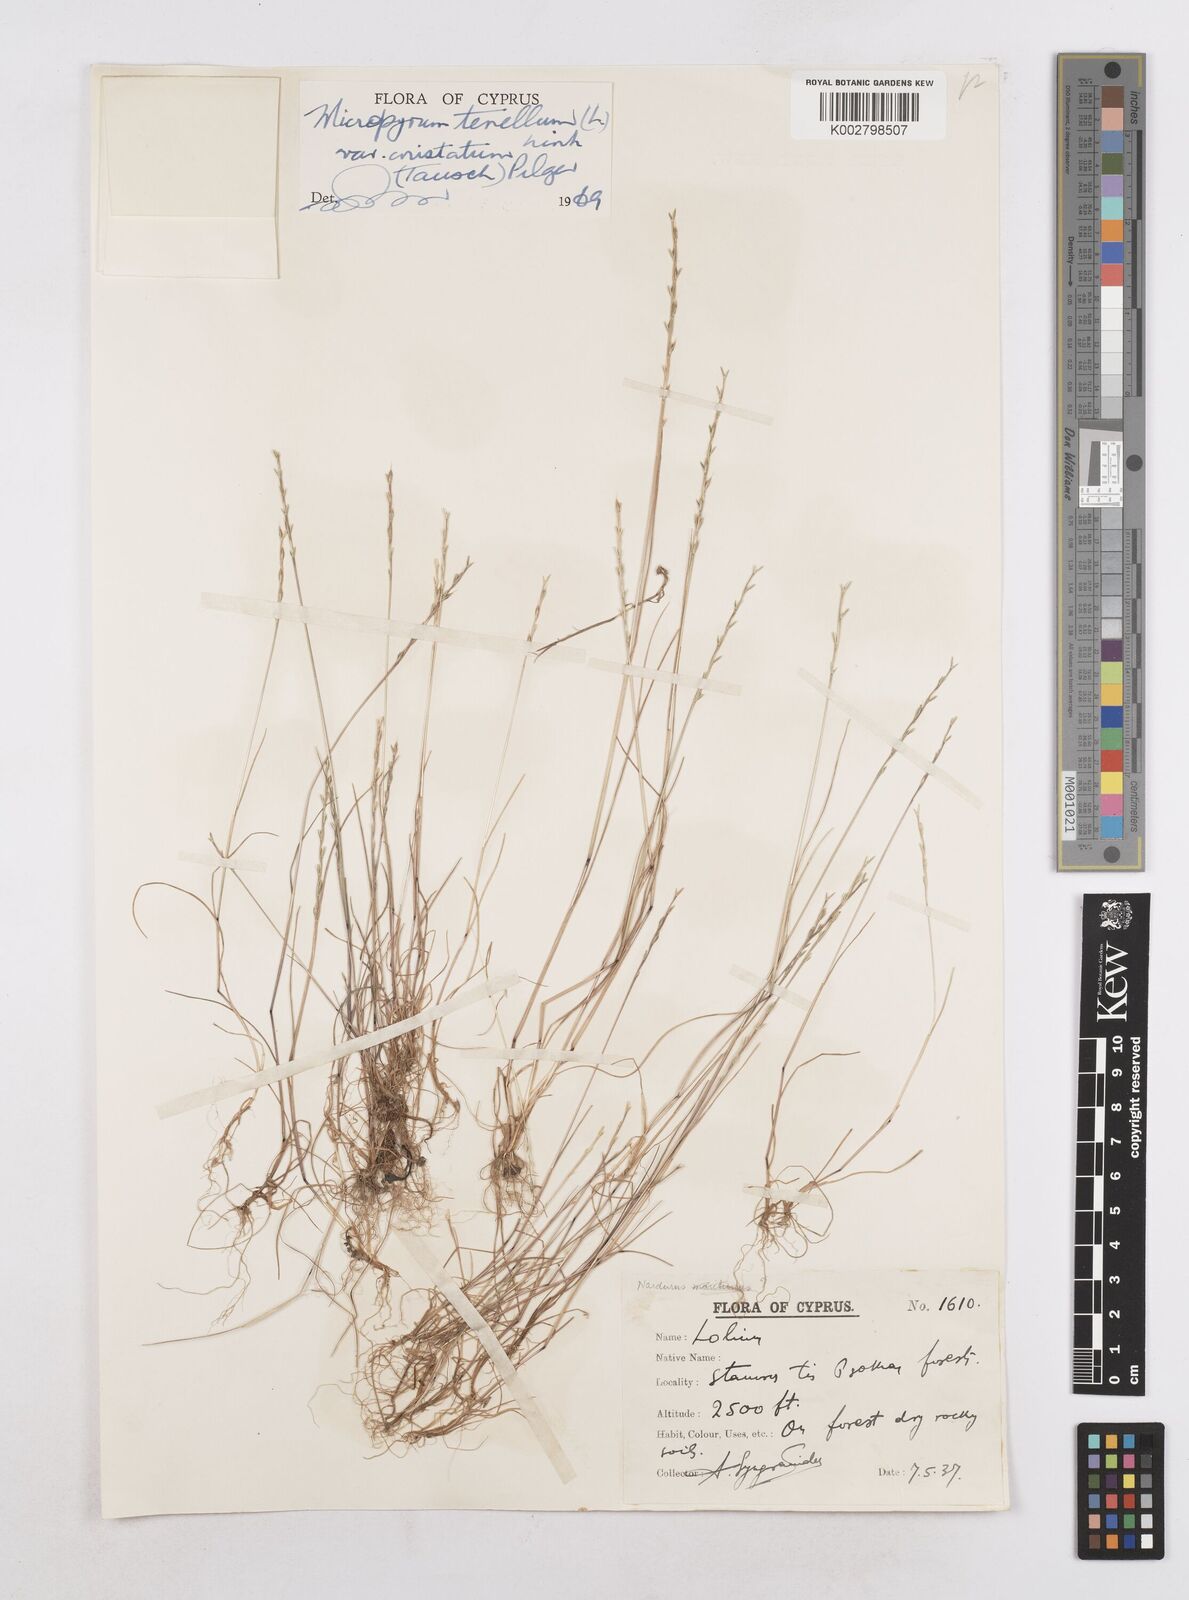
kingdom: Plantae
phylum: Tracheophyta
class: Liliopsida
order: Poales
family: Poaceae
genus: Festuca
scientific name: Festuca lachenalii
